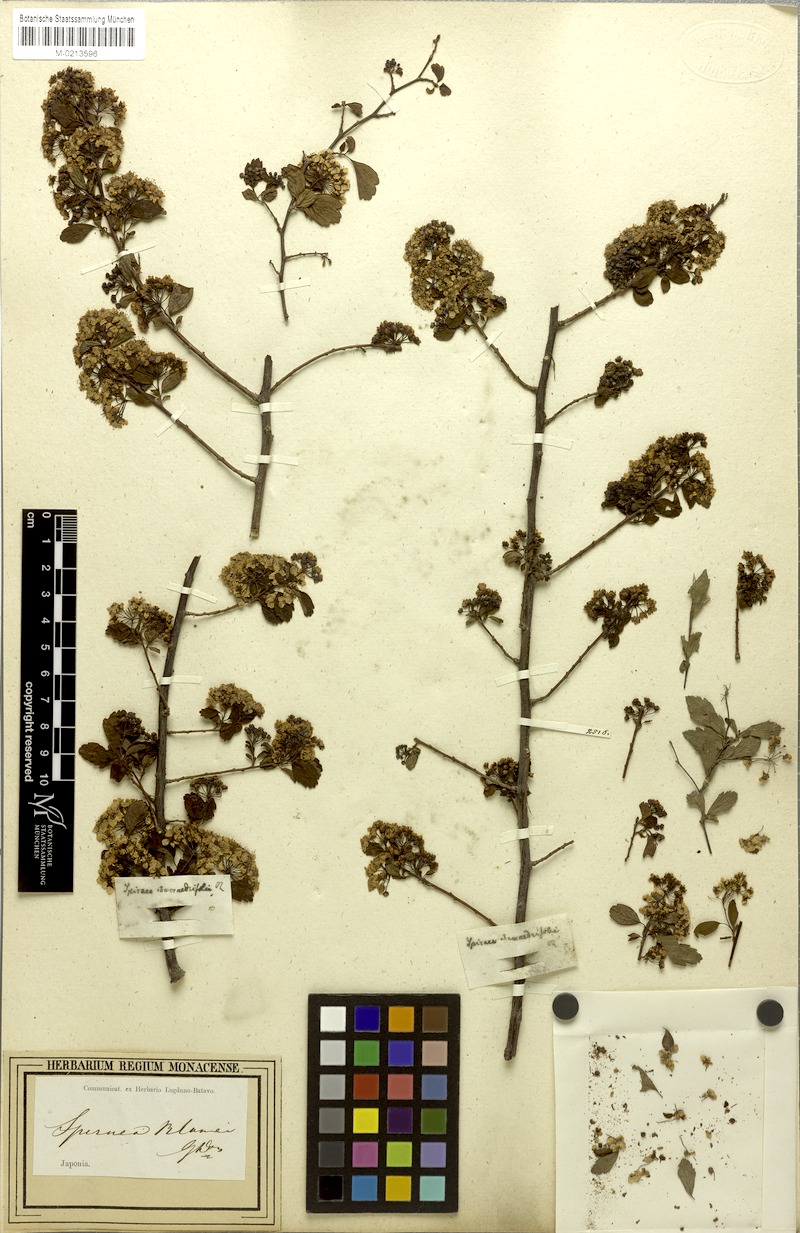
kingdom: Plantae
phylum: Tracheophyta
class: Magnoliopsida
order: Rosales
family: Rosaceae
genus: Spiraea
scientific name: Spiraea blumei
